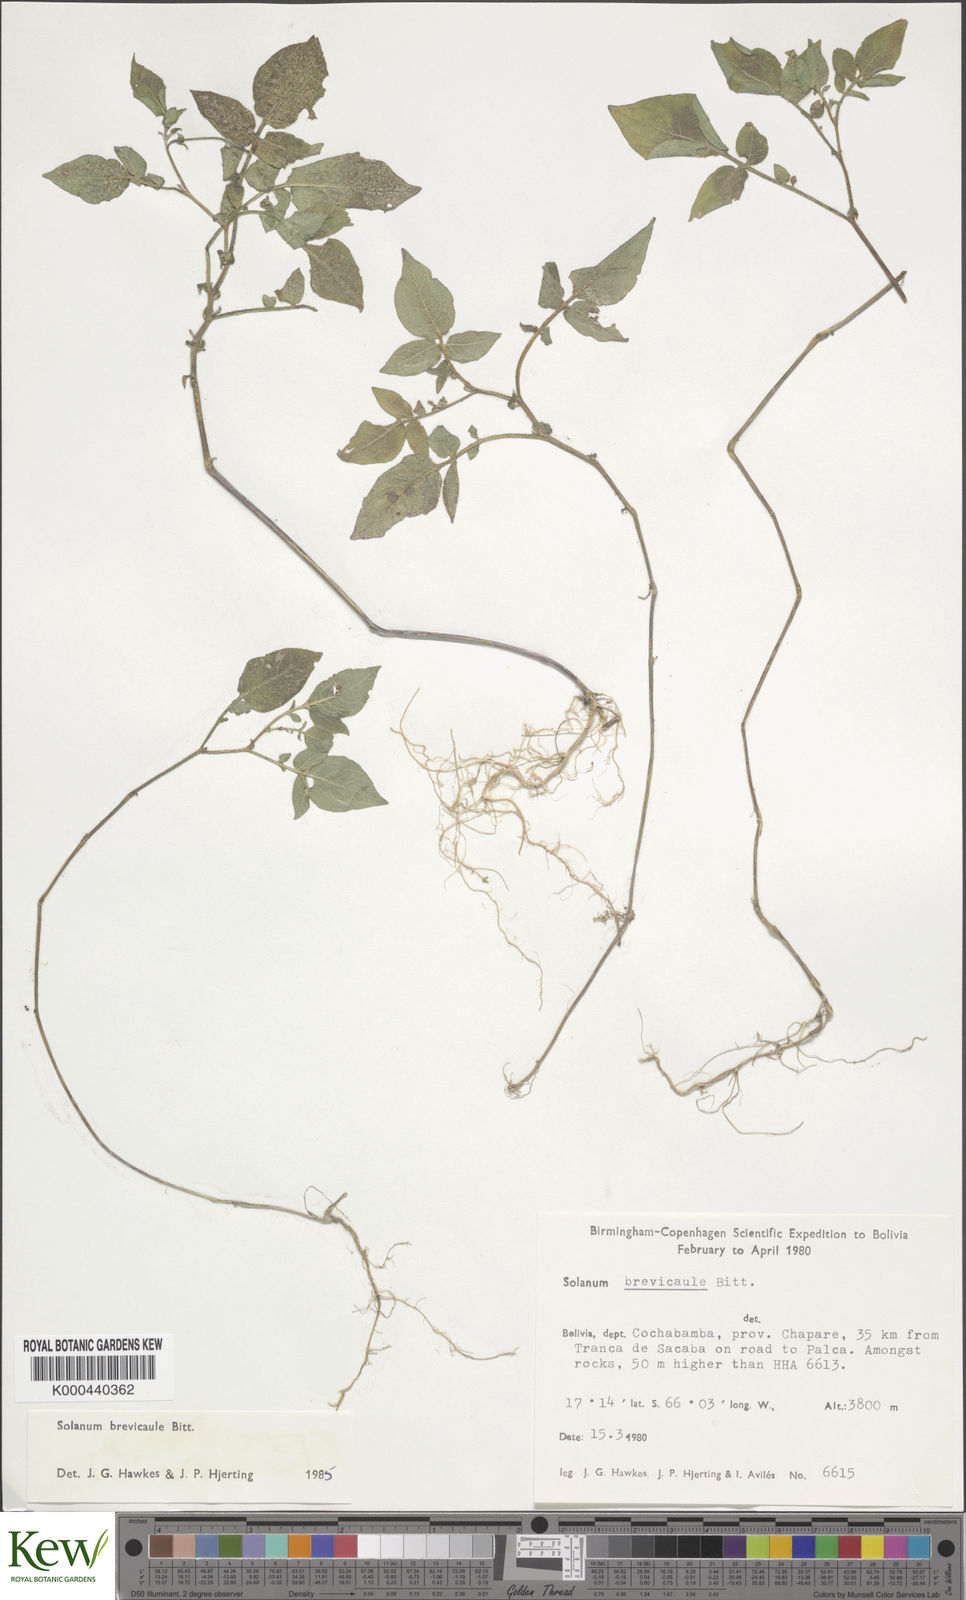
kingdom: Plantae
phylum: Tracheophyta
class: Magnoliopsida
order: Solanales
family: Solanaceae
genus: Solanum
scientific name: Solanum brevicaule
